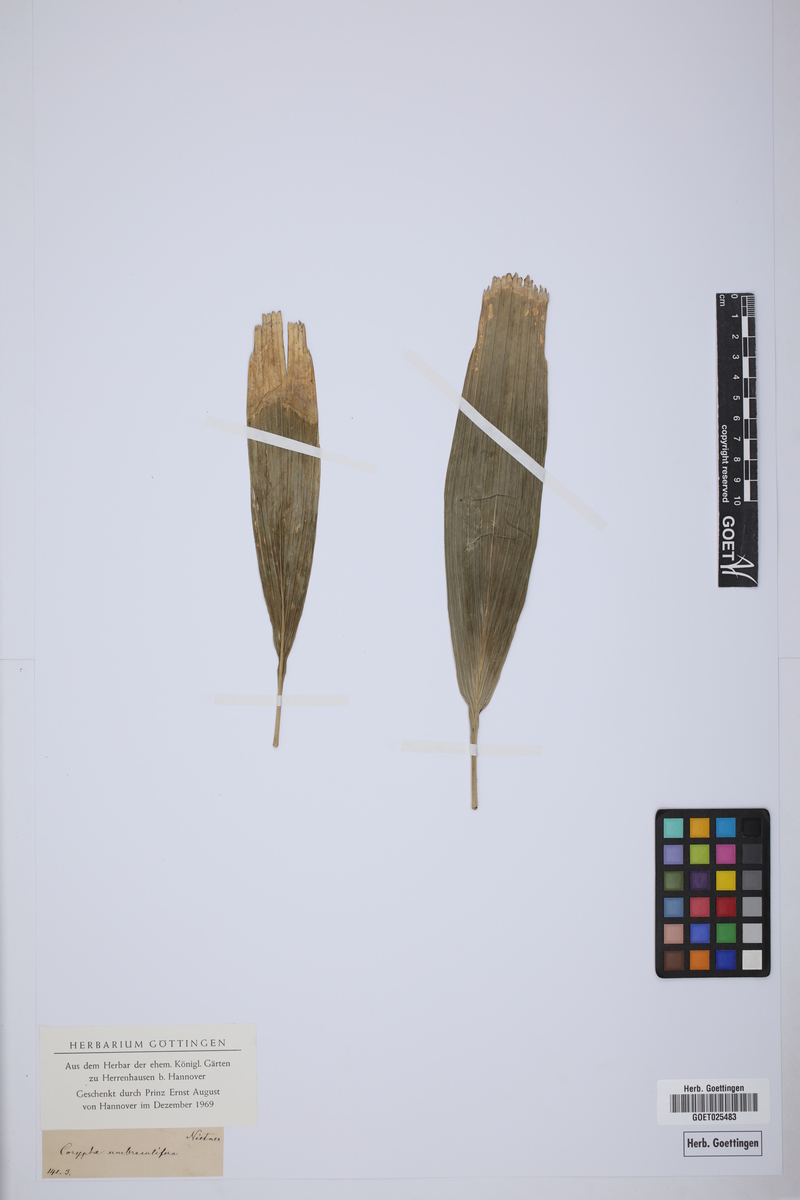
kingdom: Plantae
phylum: Tracheophyta
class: Liliopsida
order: Arecales
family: Arecaceae
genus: Corypha
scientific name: Corypha umbraculifera
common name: Talipot palm
